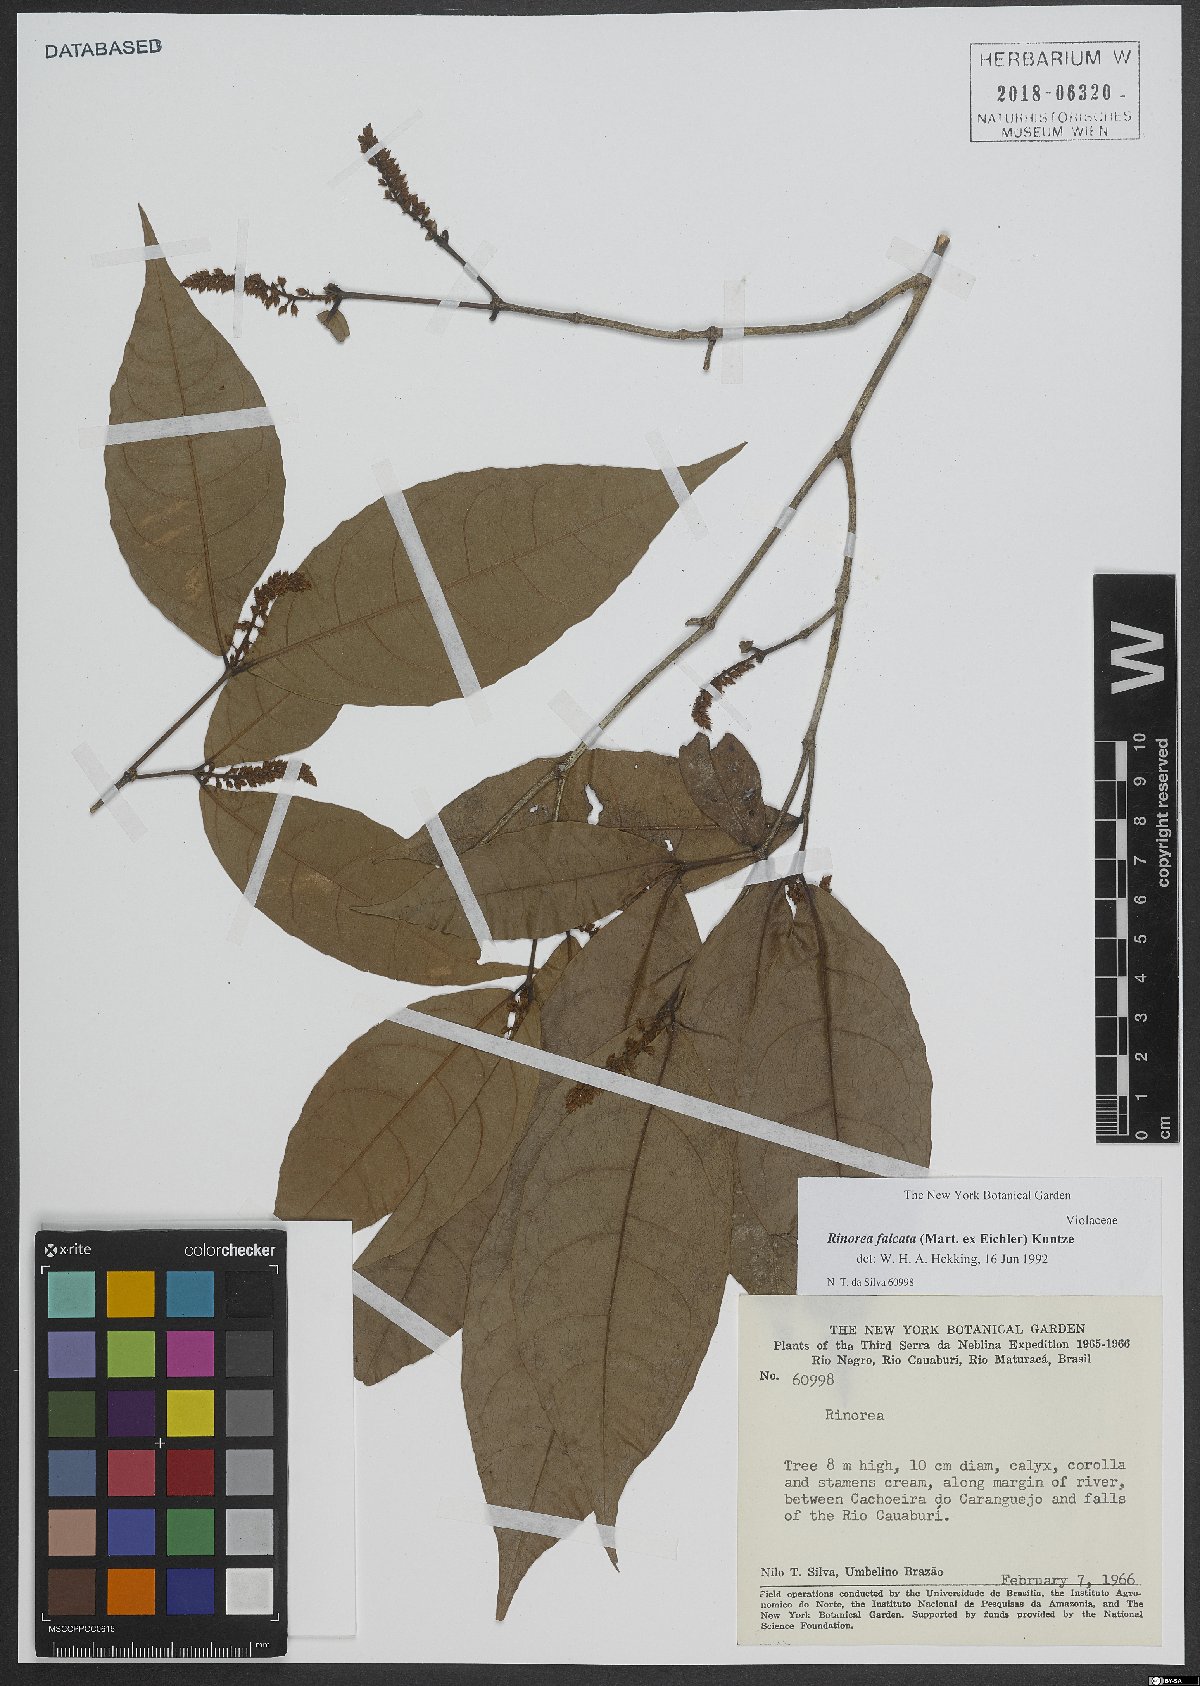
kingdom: Plantae
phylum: Tracheophyta
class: Magnoliopsida
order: Malpighiales
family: Violaceae
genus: Rinorea
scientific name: Rinorea falcata
